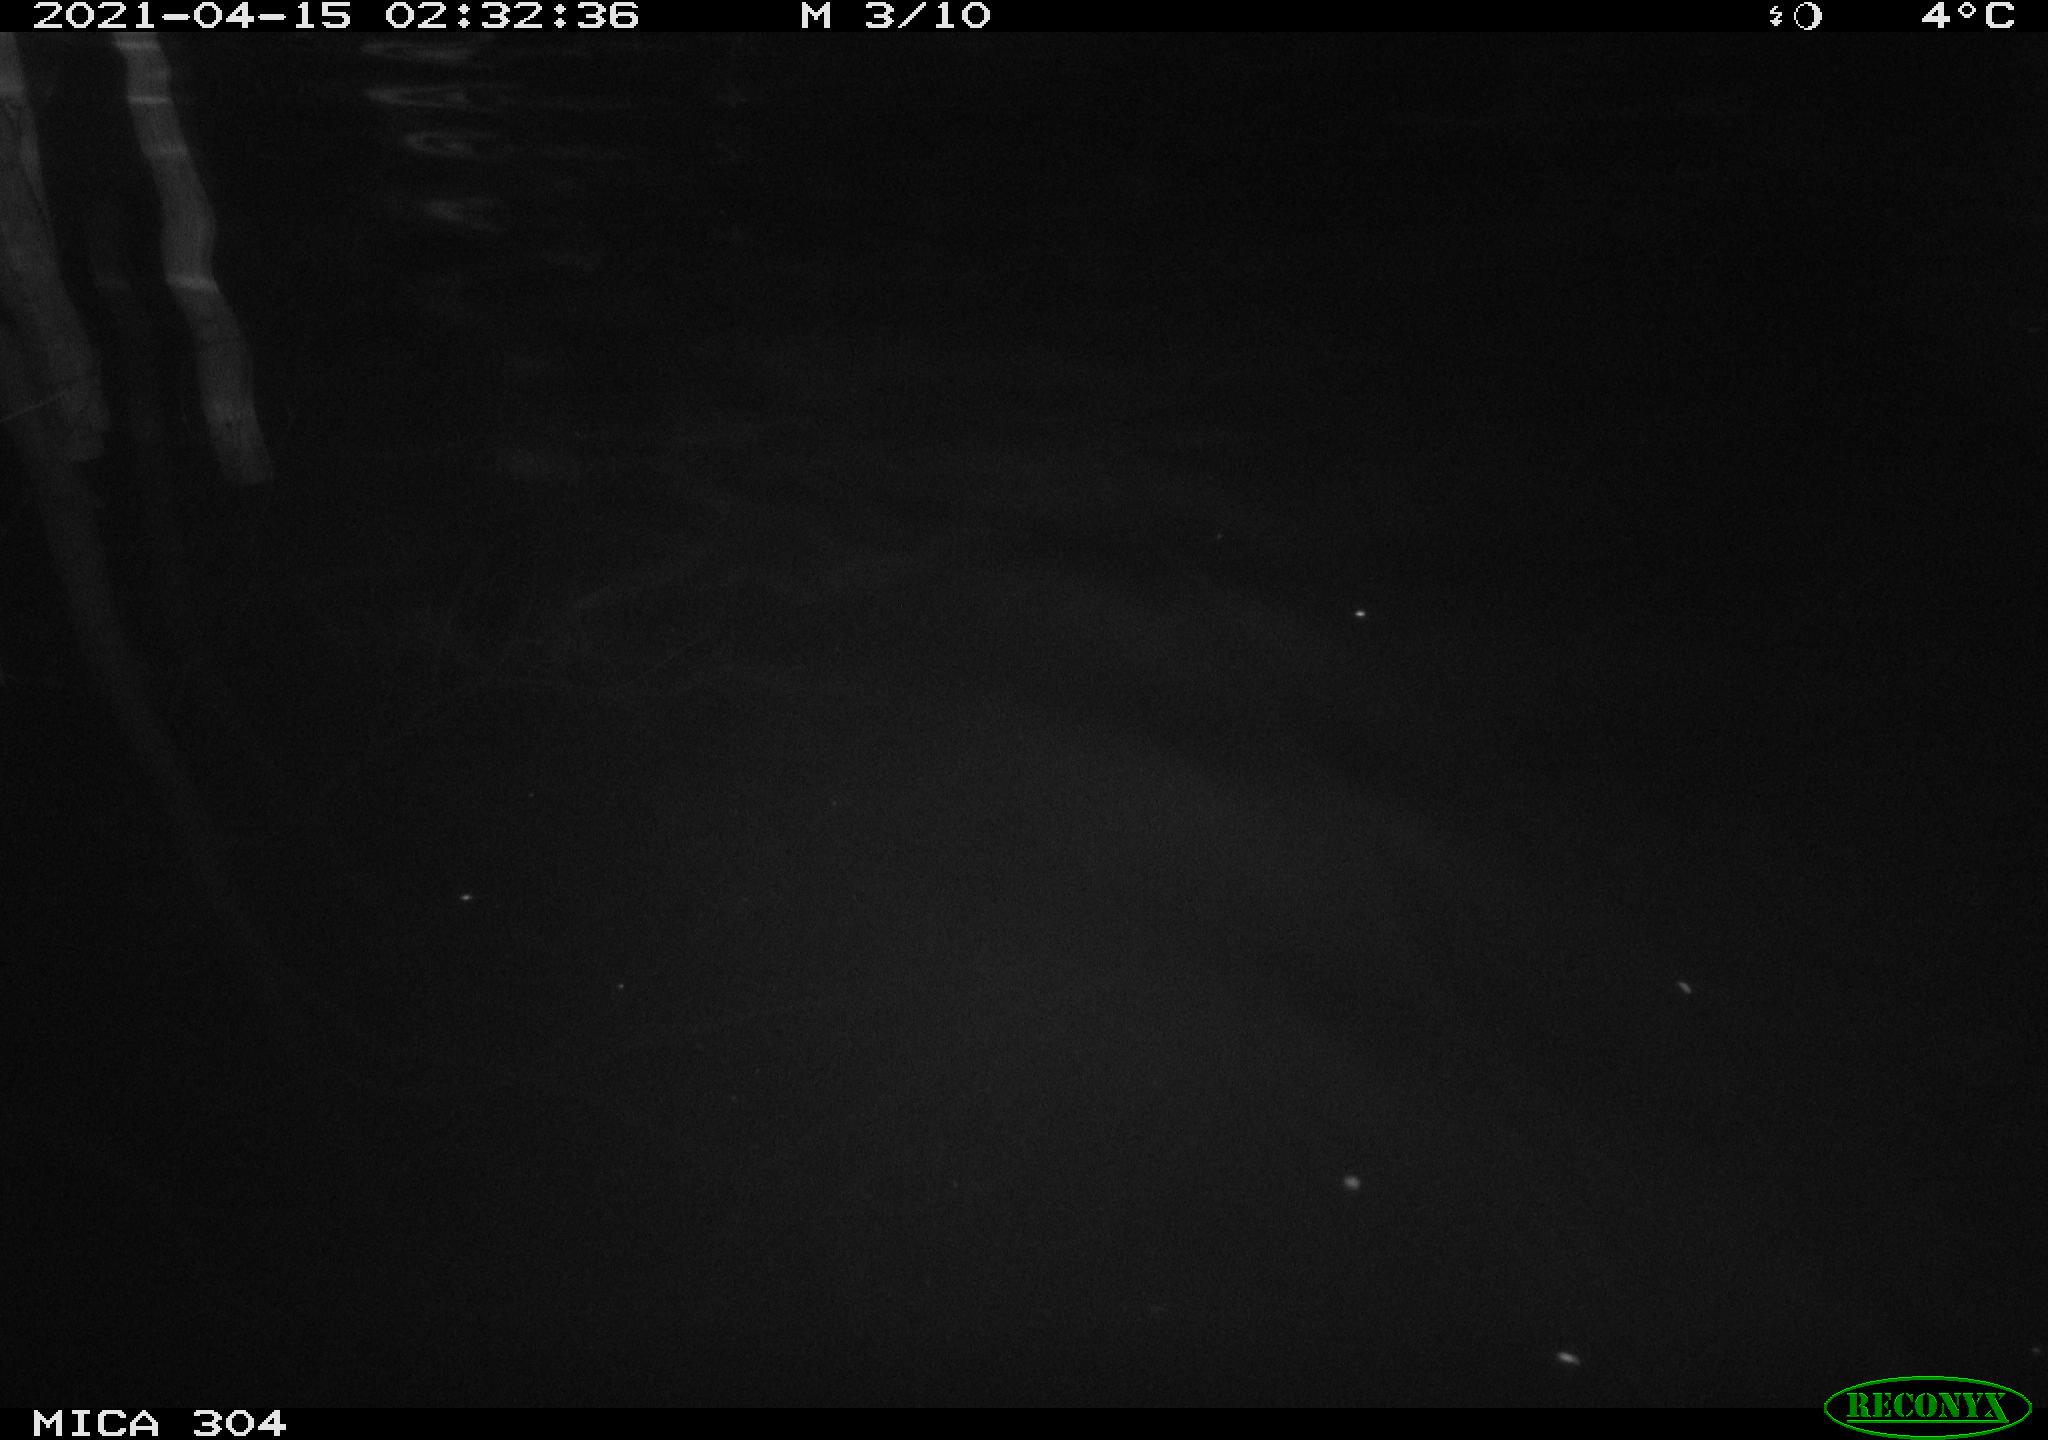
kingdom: Animalia
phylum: Chordata
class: Aves
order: Anseriformes
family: Anatidae
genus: Anas
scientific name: Anas platyrhynchos
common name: Mallard
